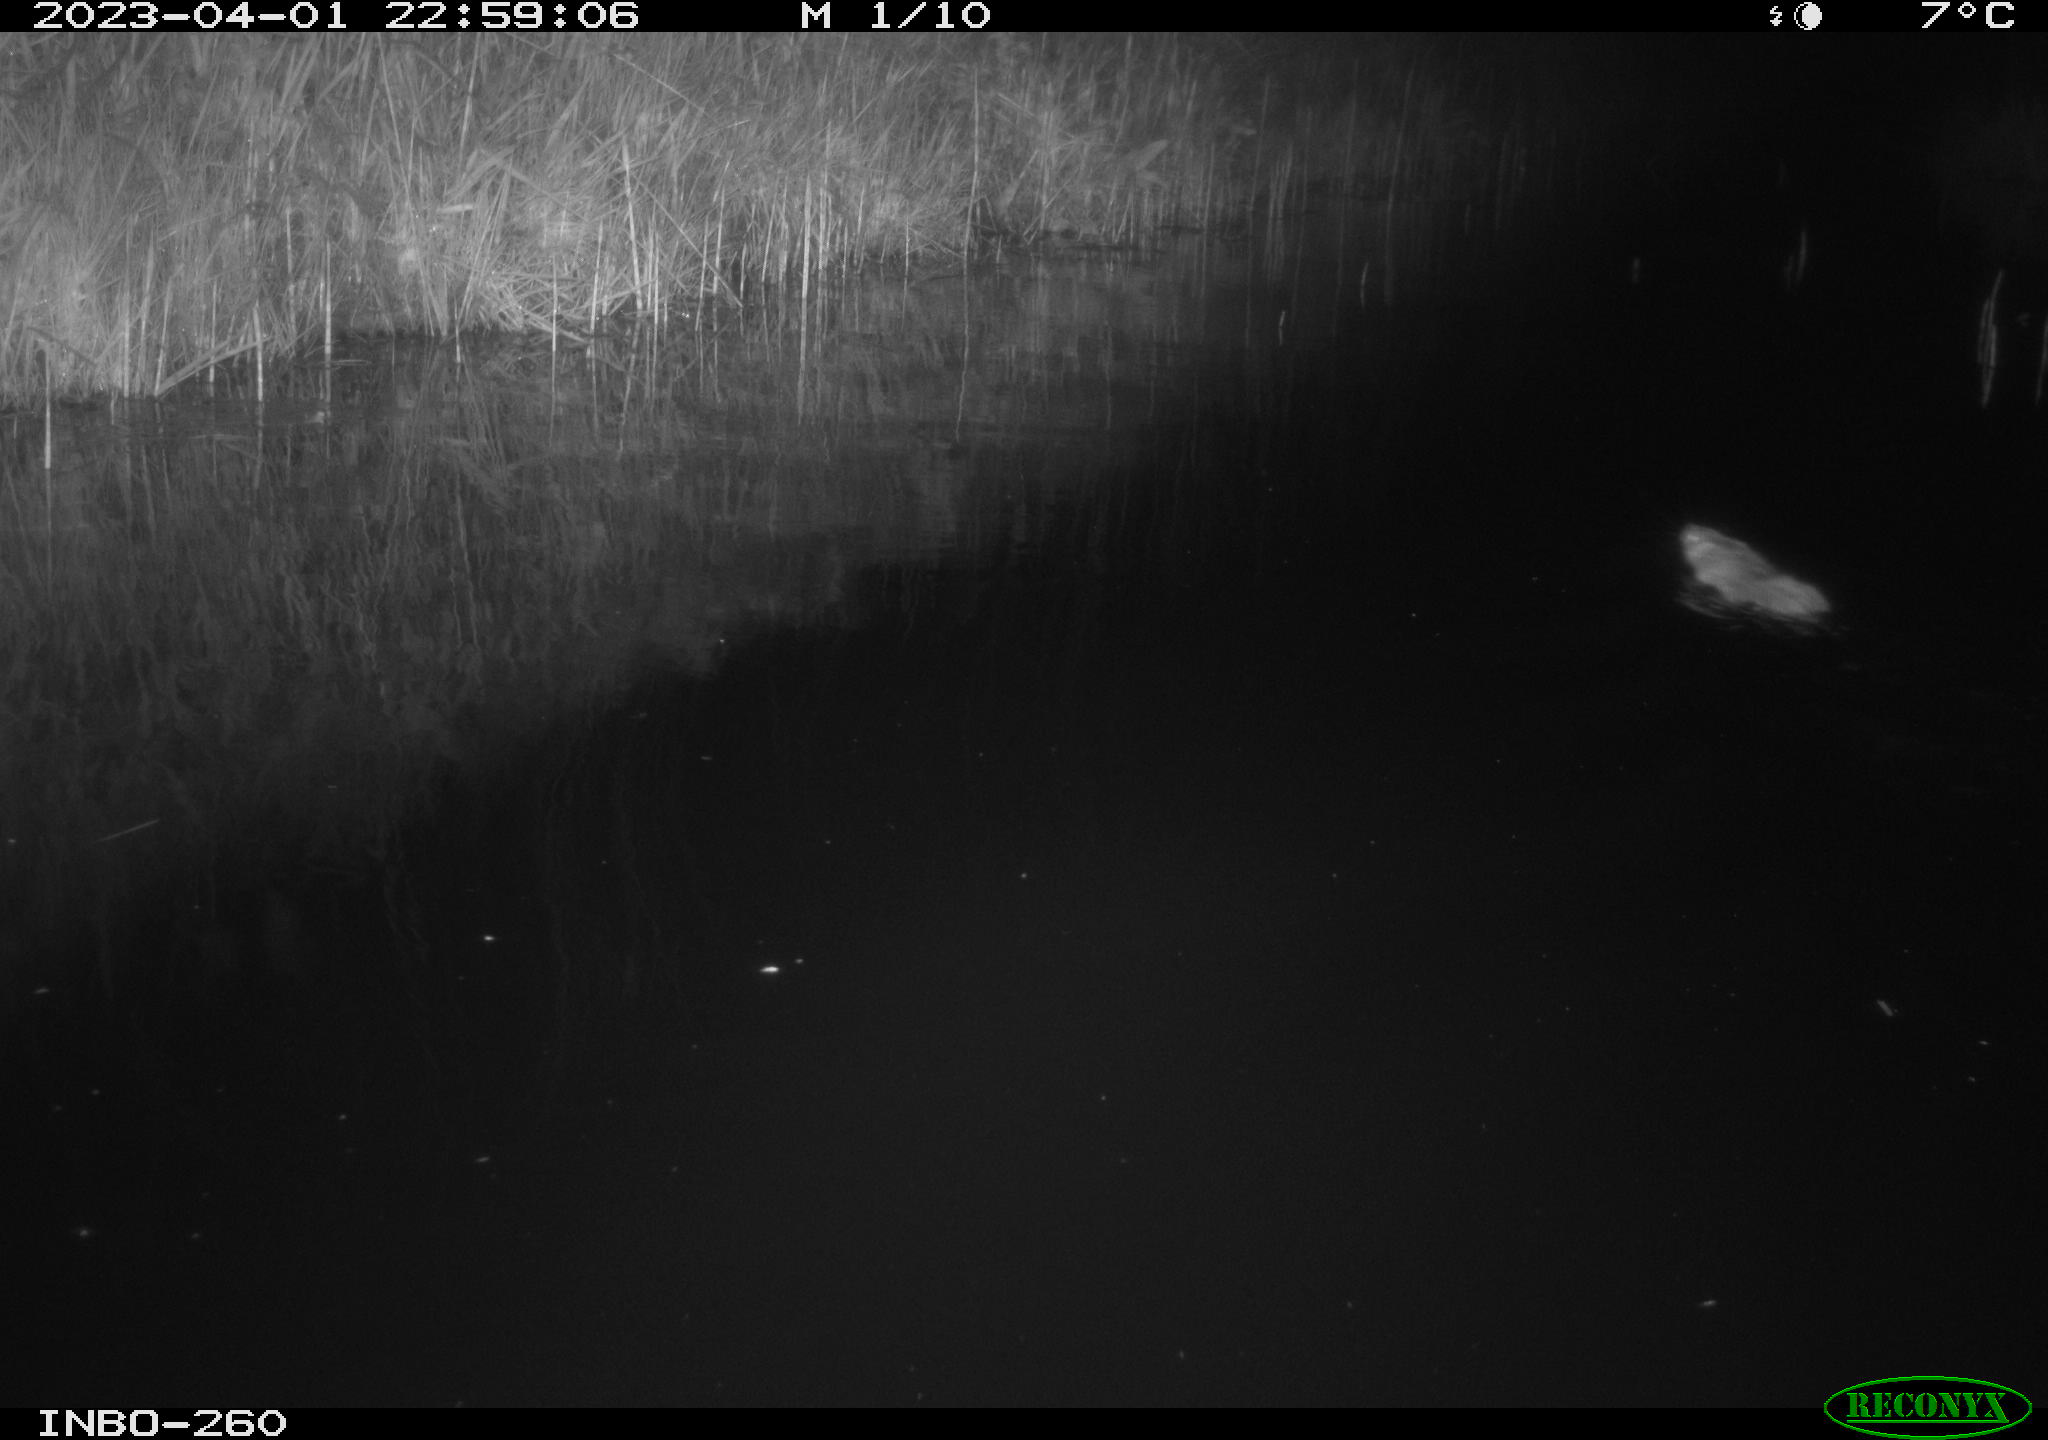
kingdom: Animalia
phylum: Chordata
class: Mammalia
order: Rodentia
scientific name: Rodentia
